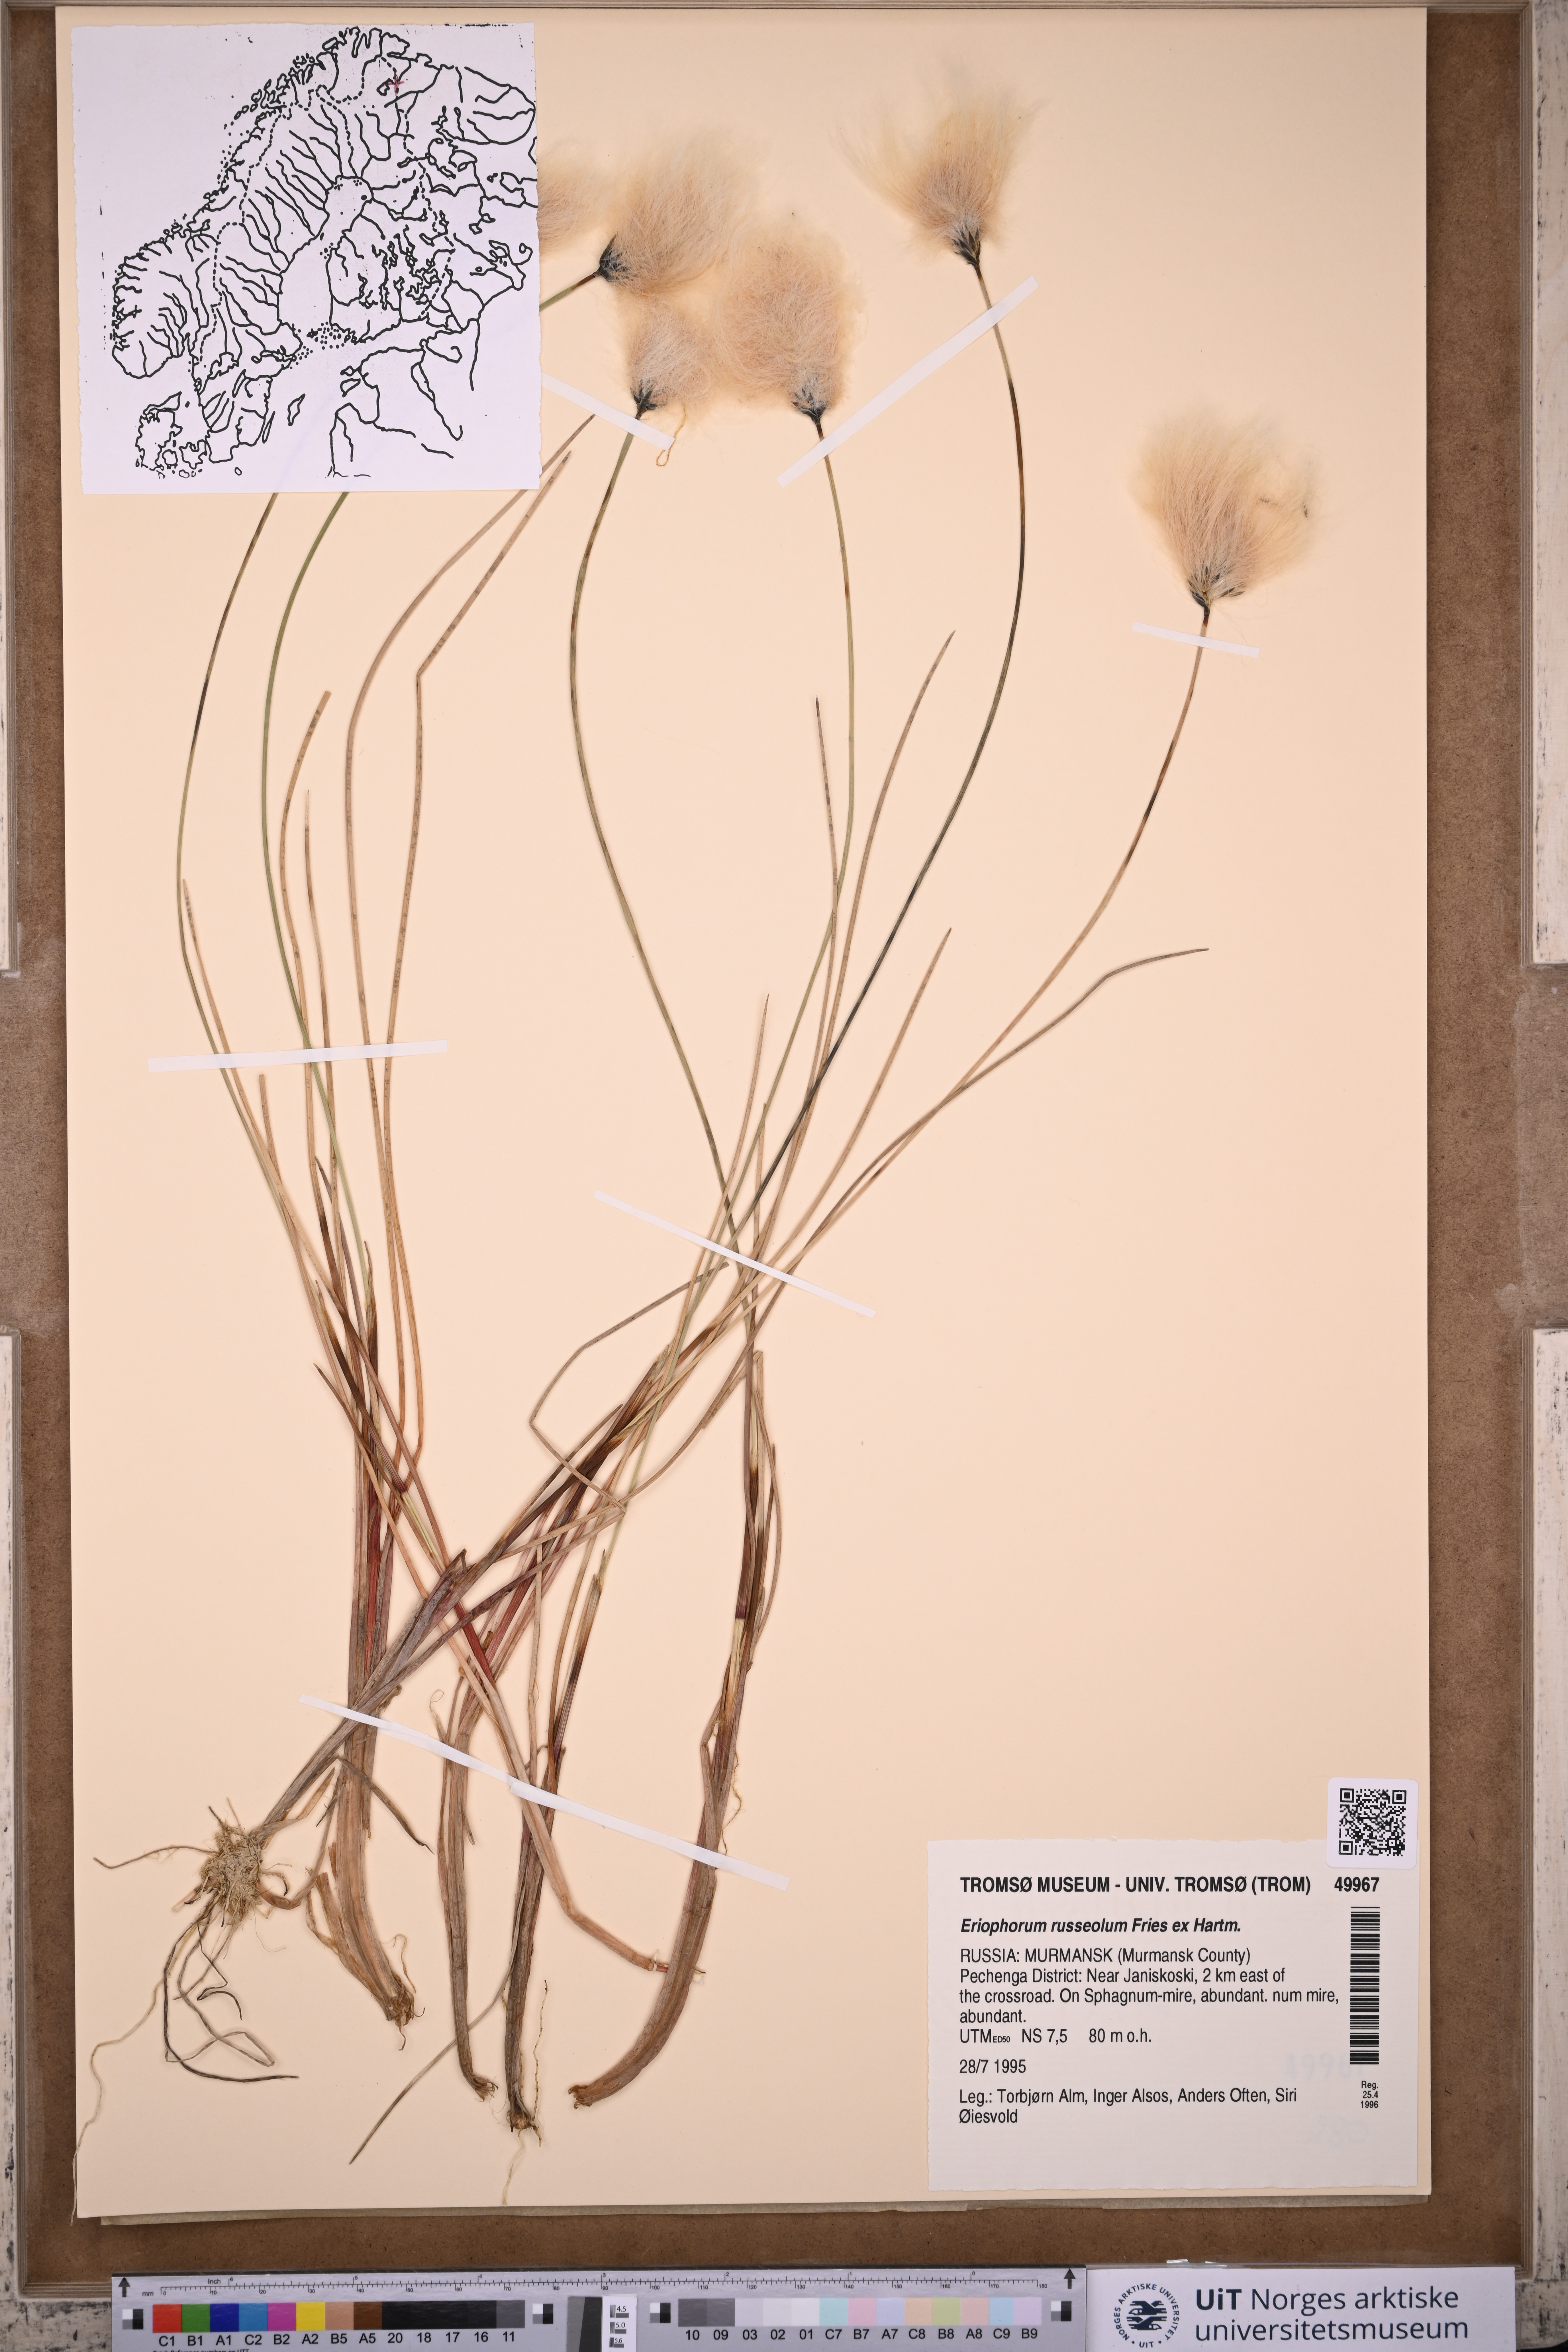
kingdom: Plantae
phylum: Tracheophyta
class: Liliopsida
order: Poales
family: Cyperaceae
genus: Eriophorum
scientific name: Eriophorum russeolum
